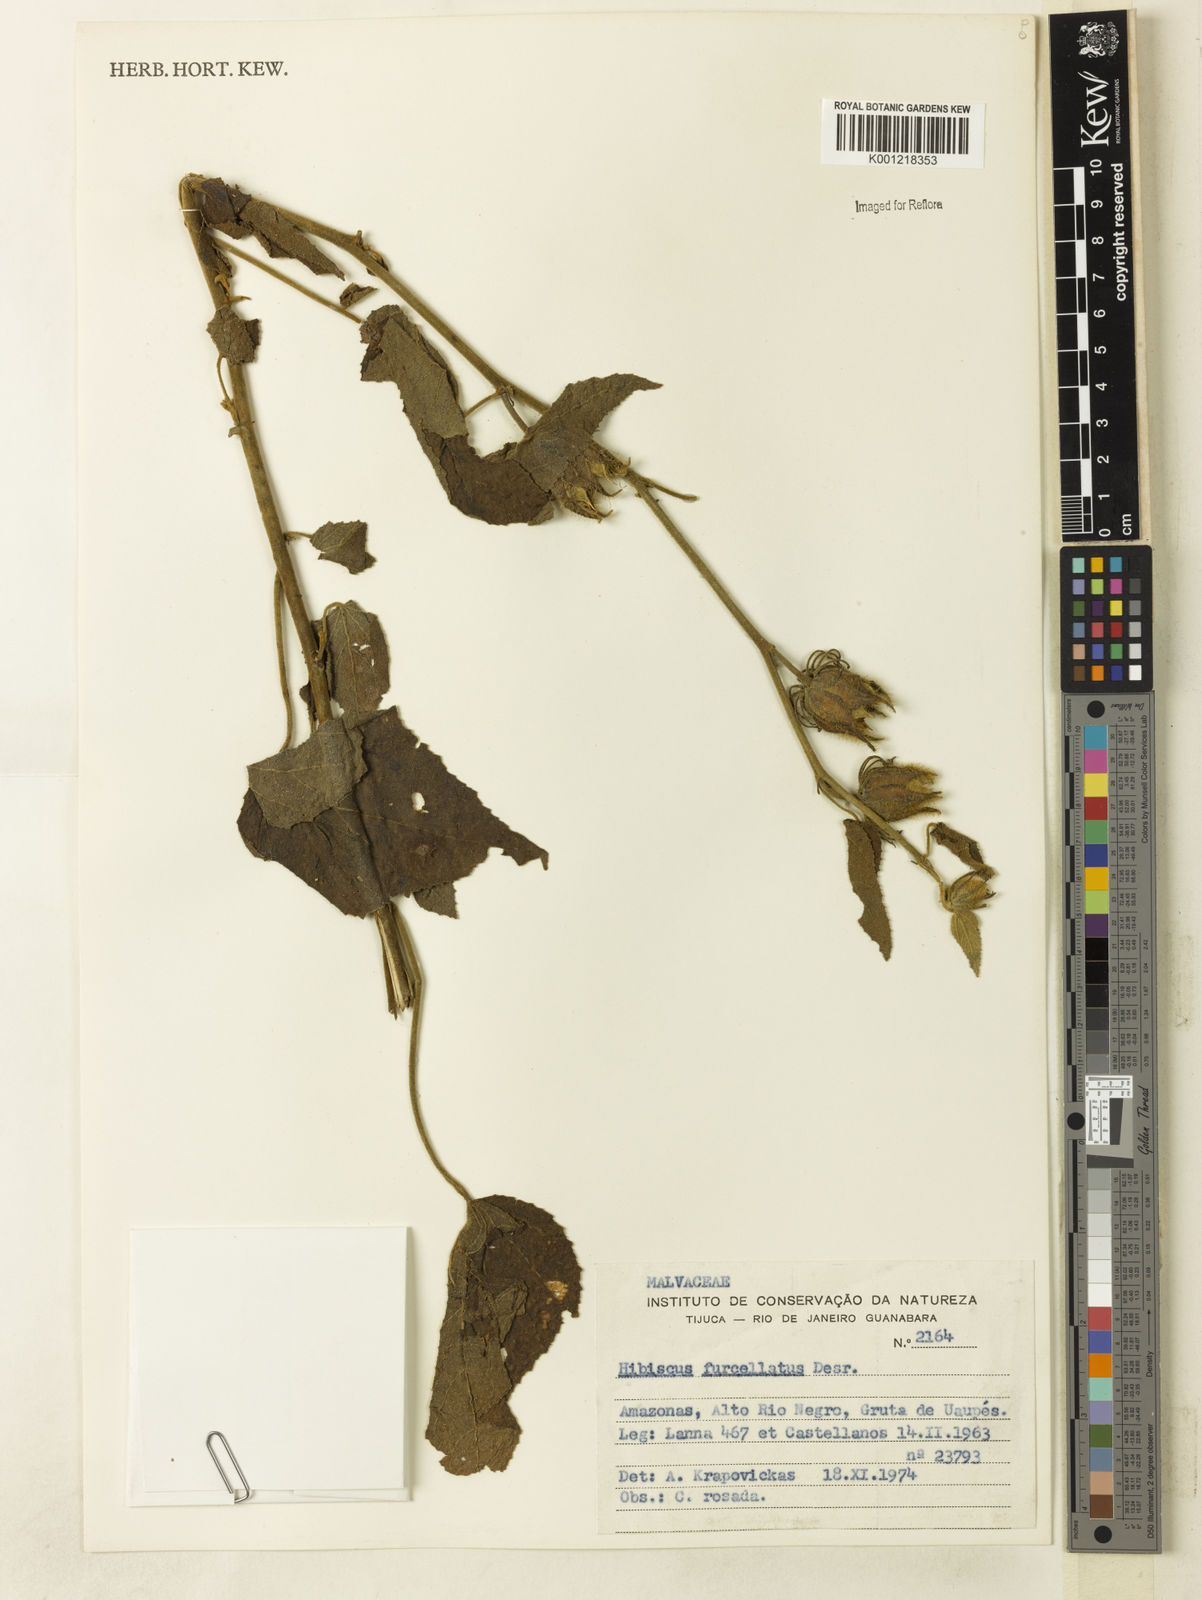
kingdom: Plantae
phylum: Tracheophyta
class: Magnoliopsida
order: Malvales
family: Malvaceae
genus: Hibiscus
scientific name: Hibiscus furcellatus
